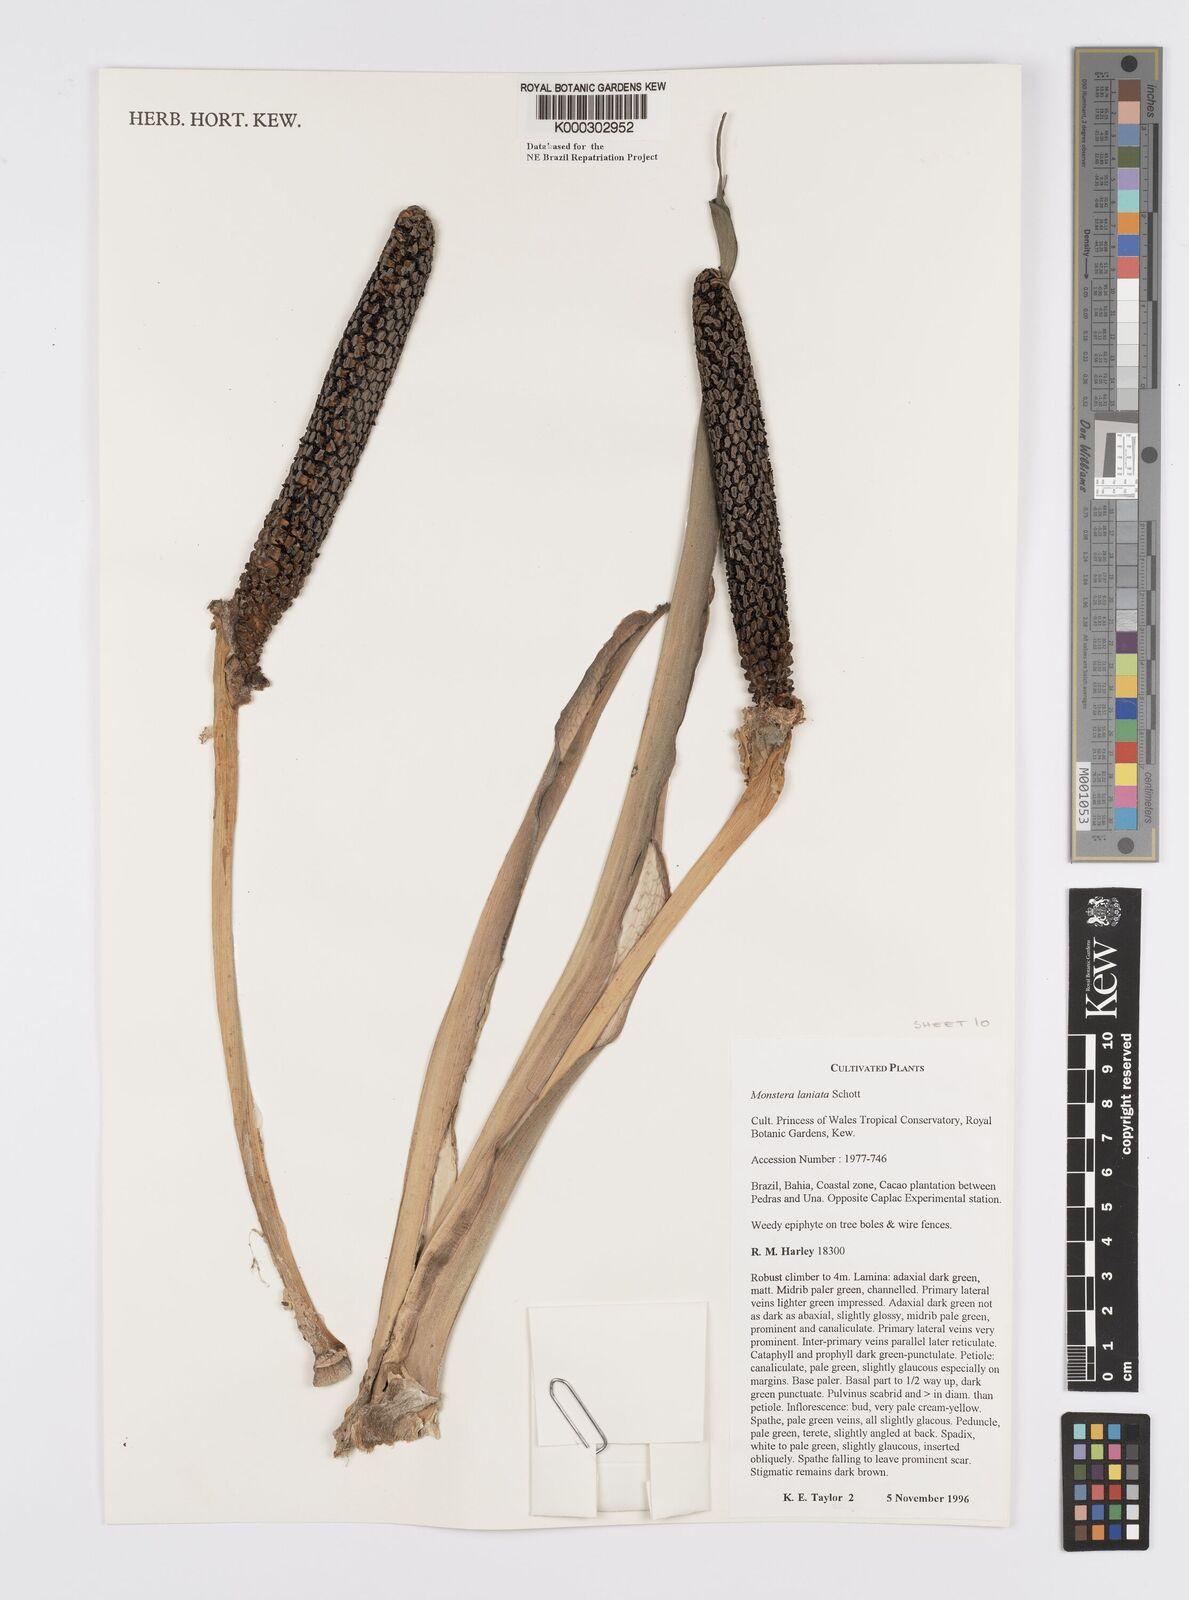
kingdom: Plantae
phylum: Tracheophyta
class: Liliopsida
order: Alismatales
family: Araceae
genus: Monstera
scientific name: Monstera adansonii
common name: Tarovine
